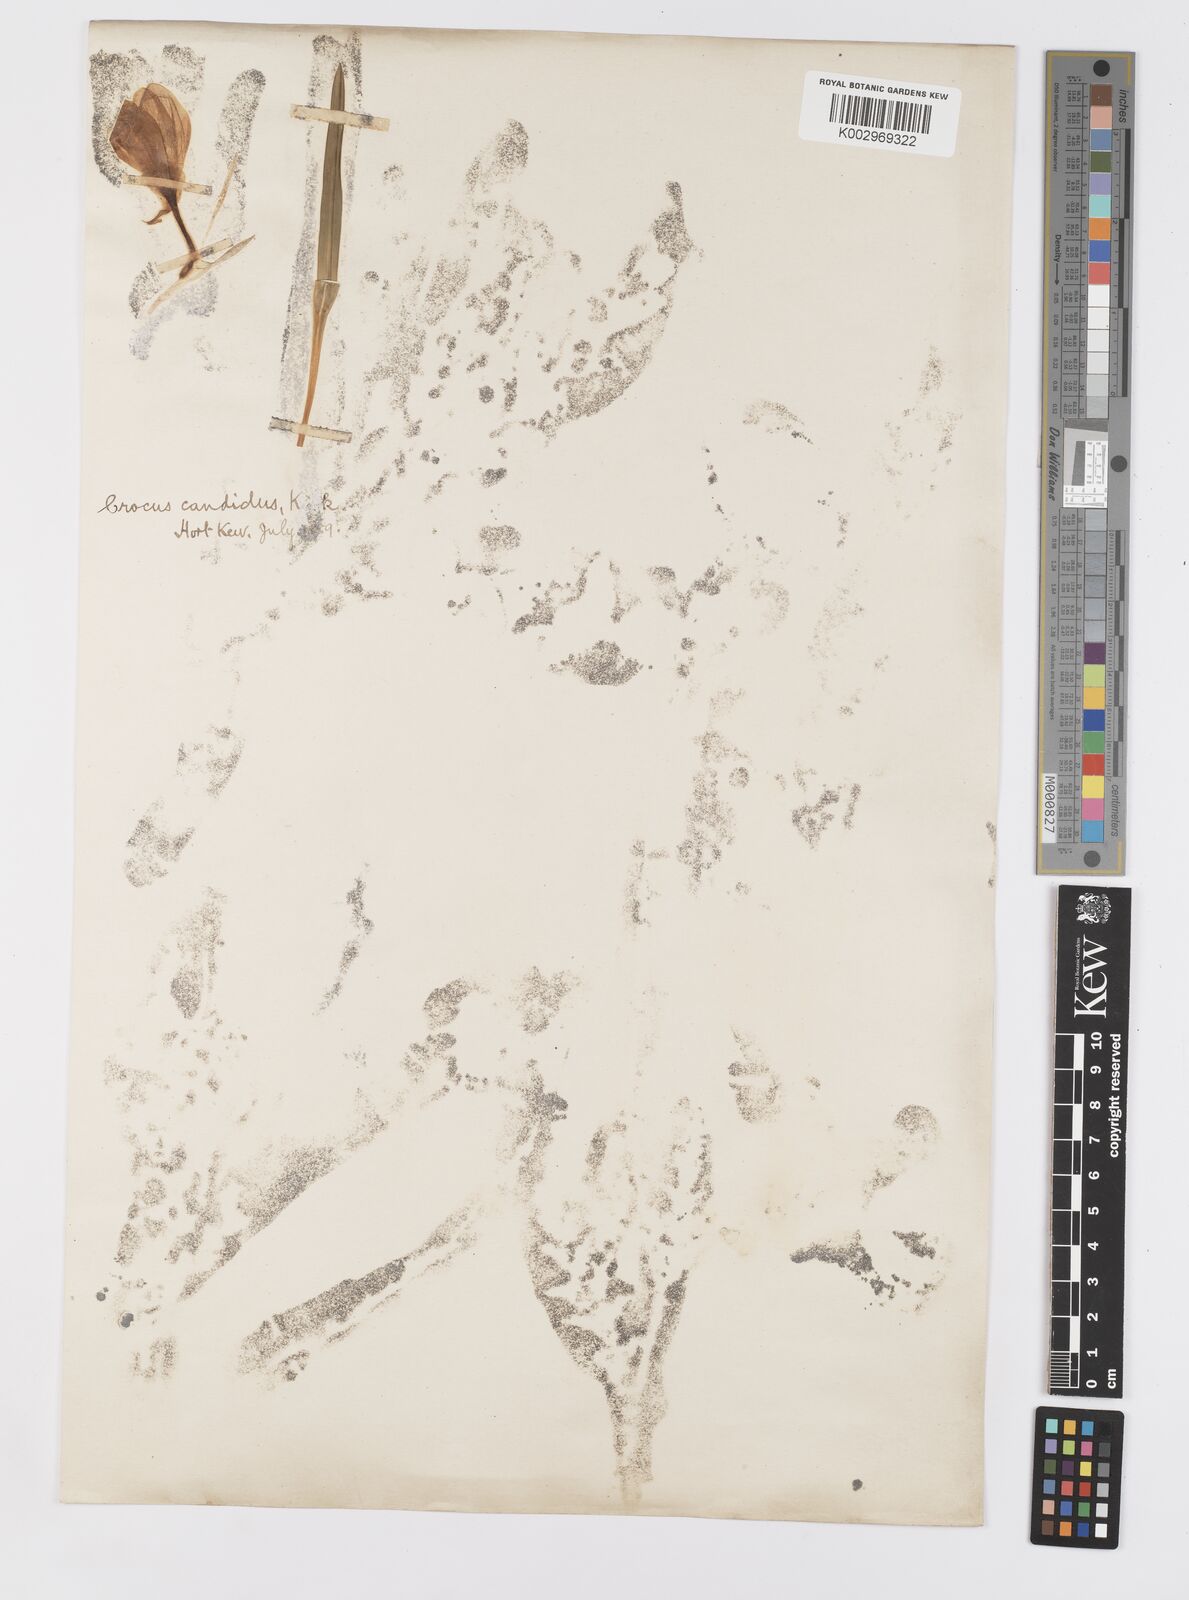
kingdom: Plantae
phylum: Tracheophyta
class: Liliopsida
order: Asparagales
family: Iridaceae
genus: Crocus
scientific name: Crocus
